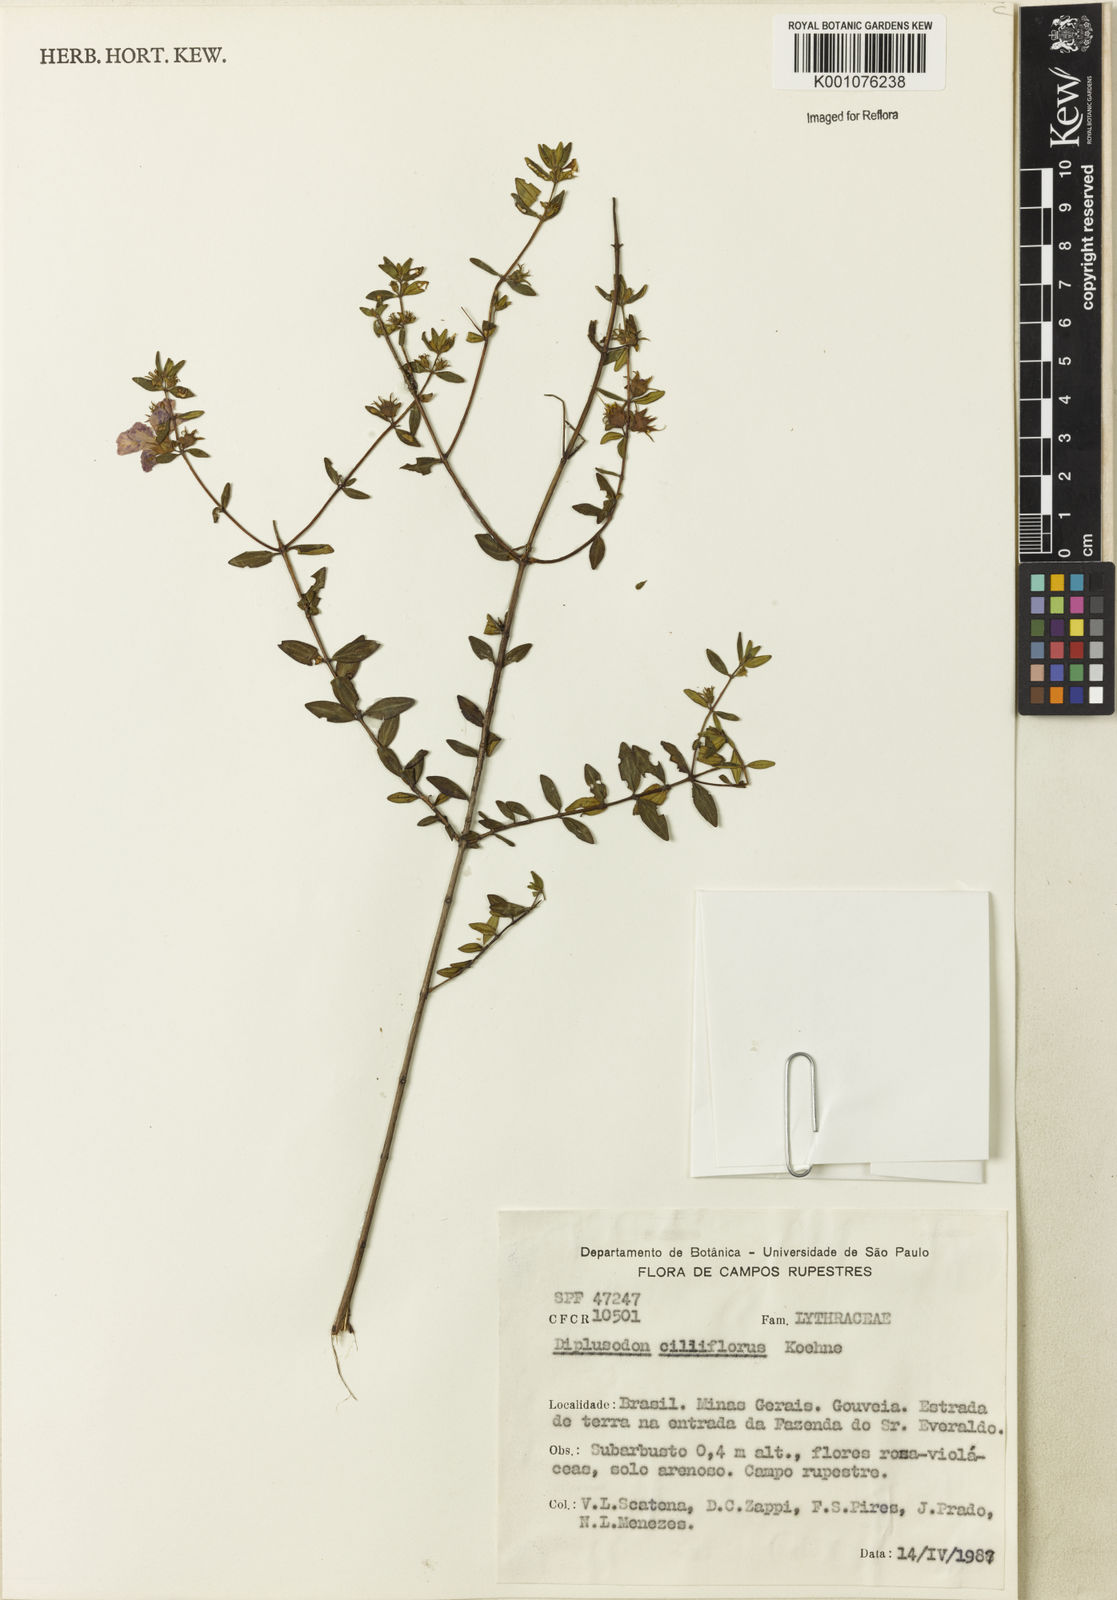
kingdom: Plantae
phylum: Tracheophyta
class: Magnoliopsida
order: Myrtales
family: Lythraceae
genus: Diplusodon
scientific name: Diplusodon ciliiflorus
